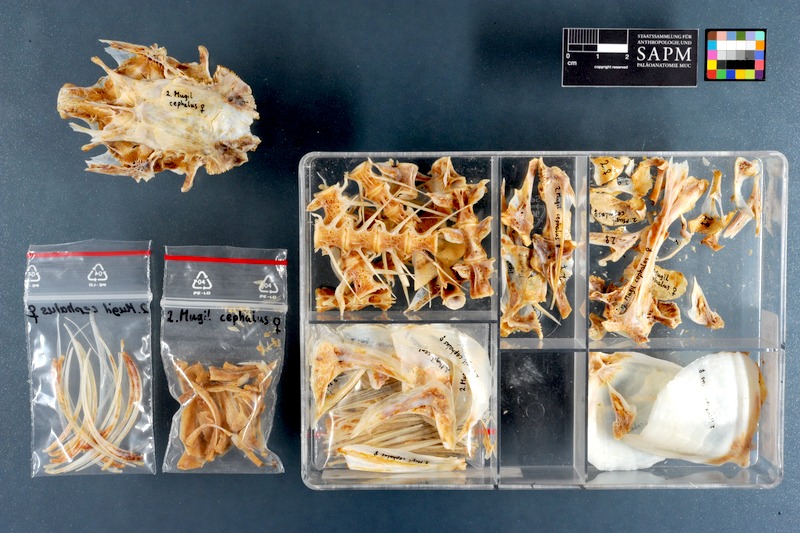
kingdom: Animalia
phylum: Chordata
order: Mugiliformes
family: Mugilidae
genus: Mugil
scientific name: Mugil cephalus
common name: Grey mullet
